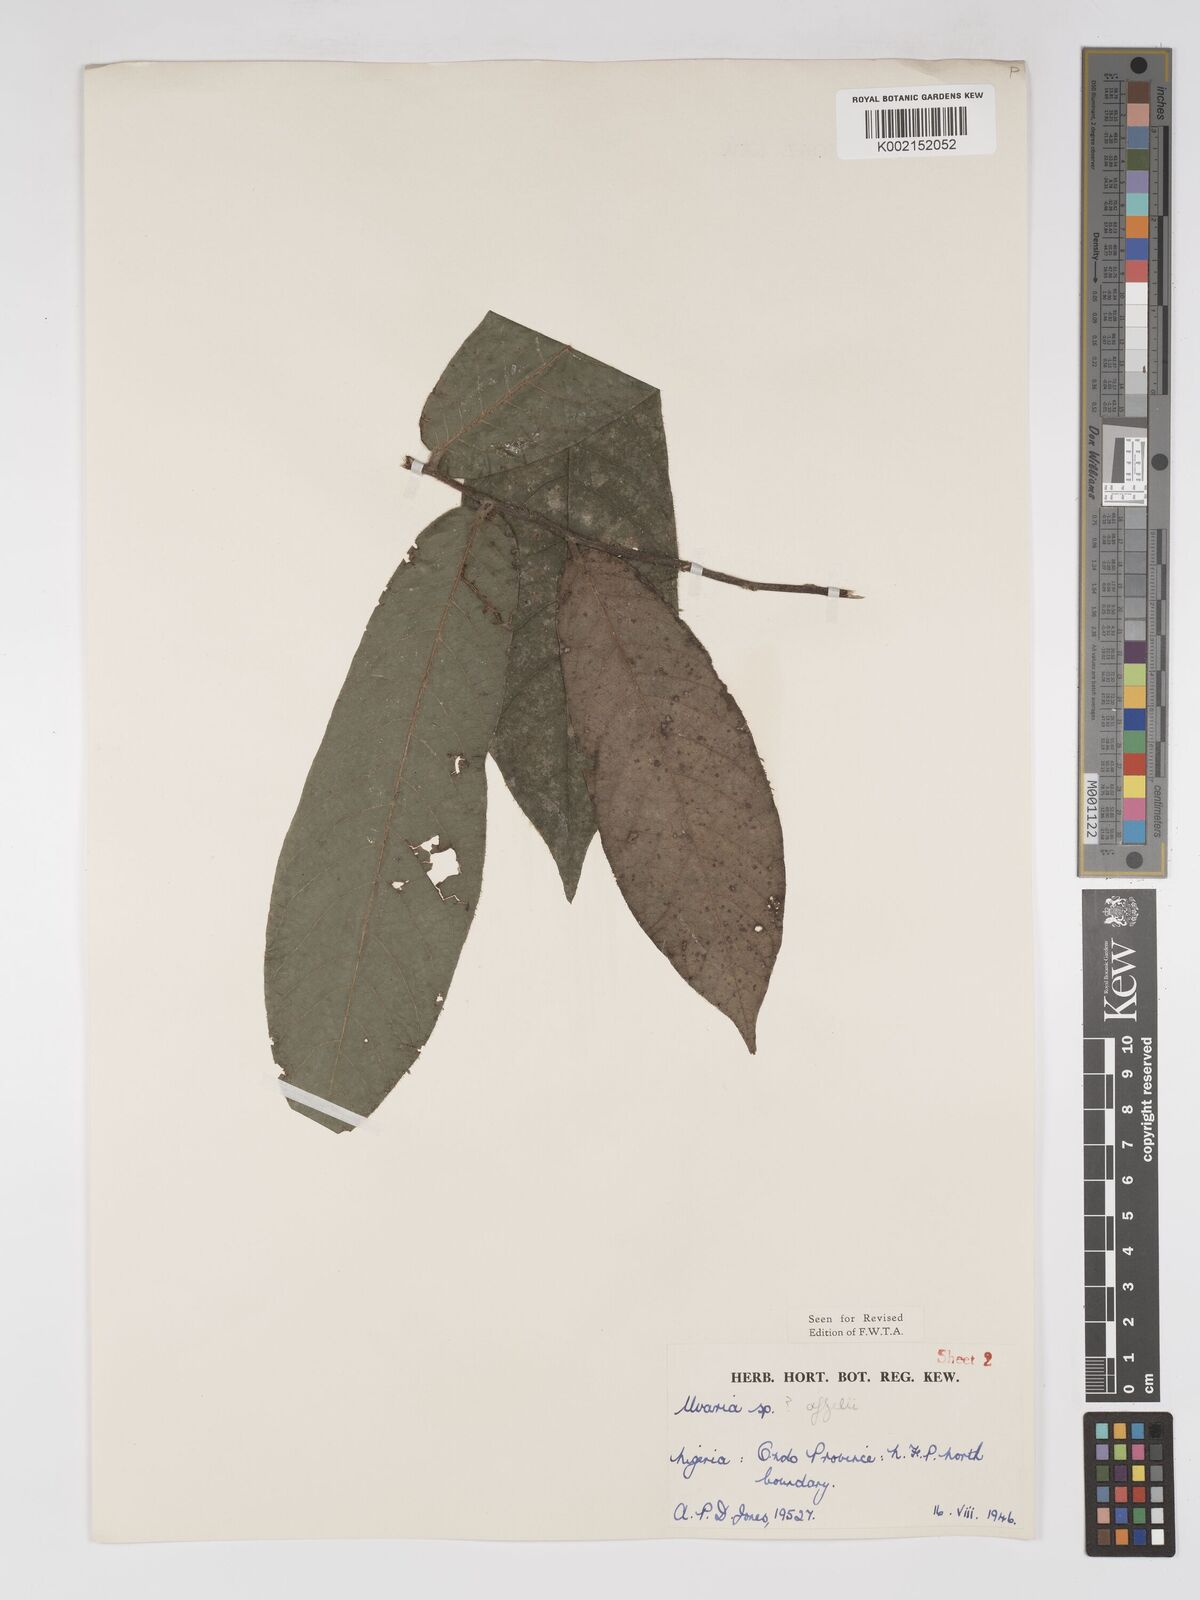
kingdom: Plantae
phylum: Tracheophyta
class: Magnoliopsida
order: Magnoliales
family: Annonaceae
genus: Uvaria
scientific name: Uvaria afzelii
